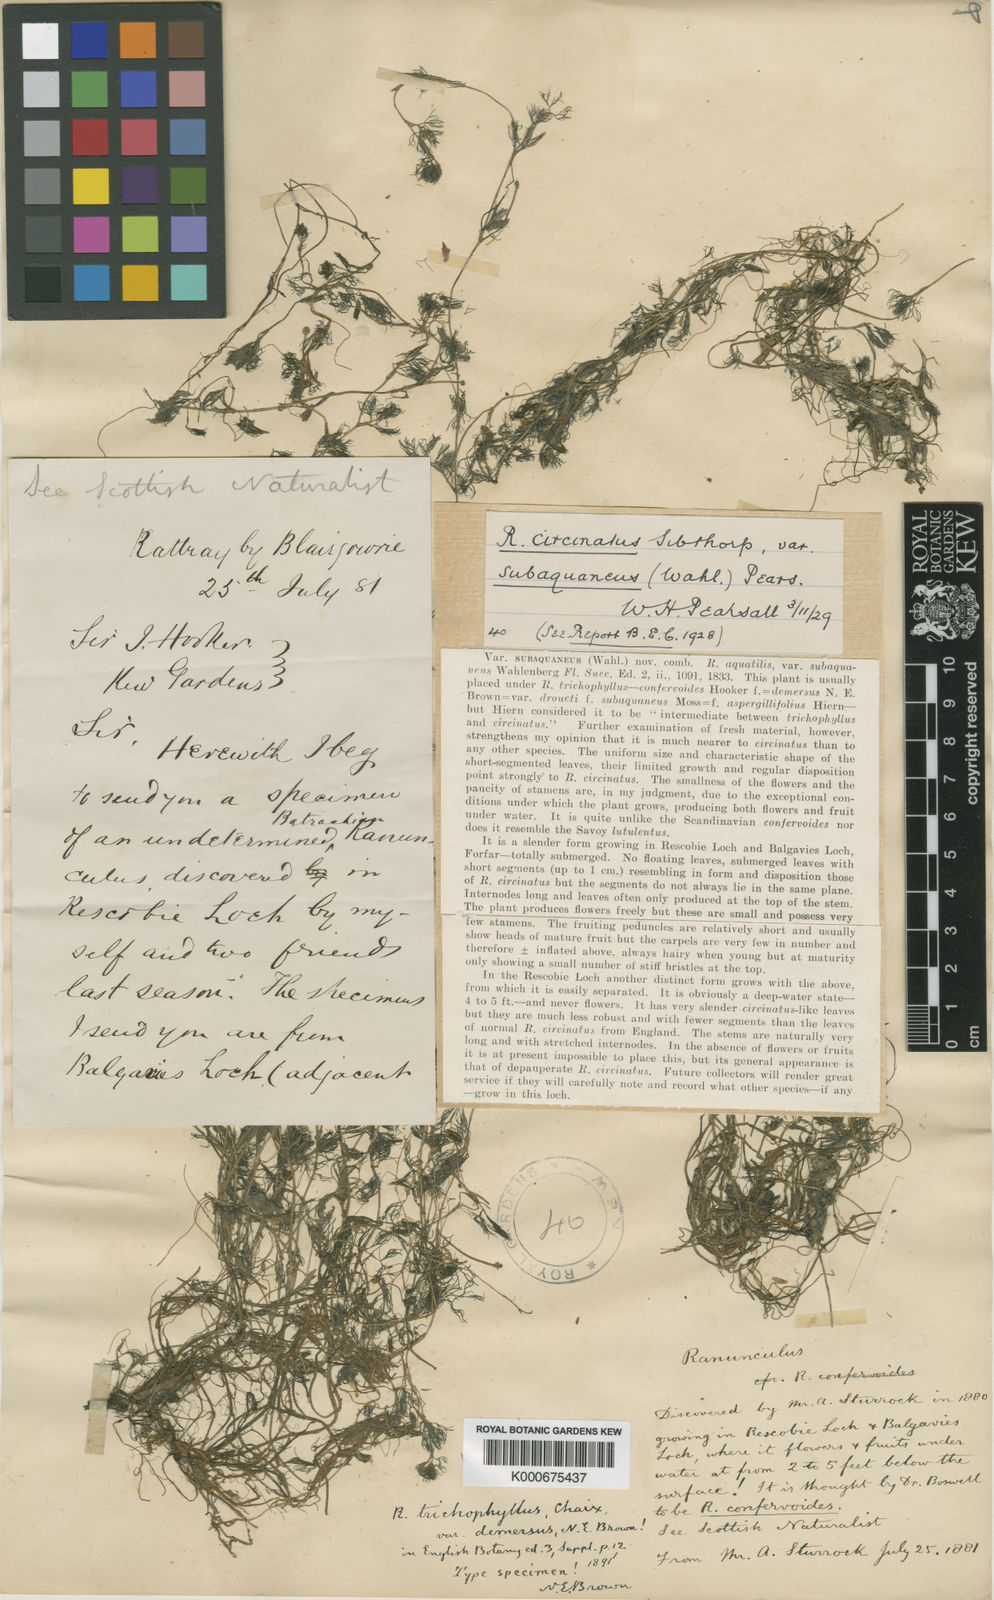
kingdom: Plantae
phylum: Tracheophyta
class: Magnoliopsida
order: Ranunculales
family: Ranunculaceae
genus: Ranunculus
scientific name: Ranunculus circinatus
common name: Fan-leaved water-crowfoot
